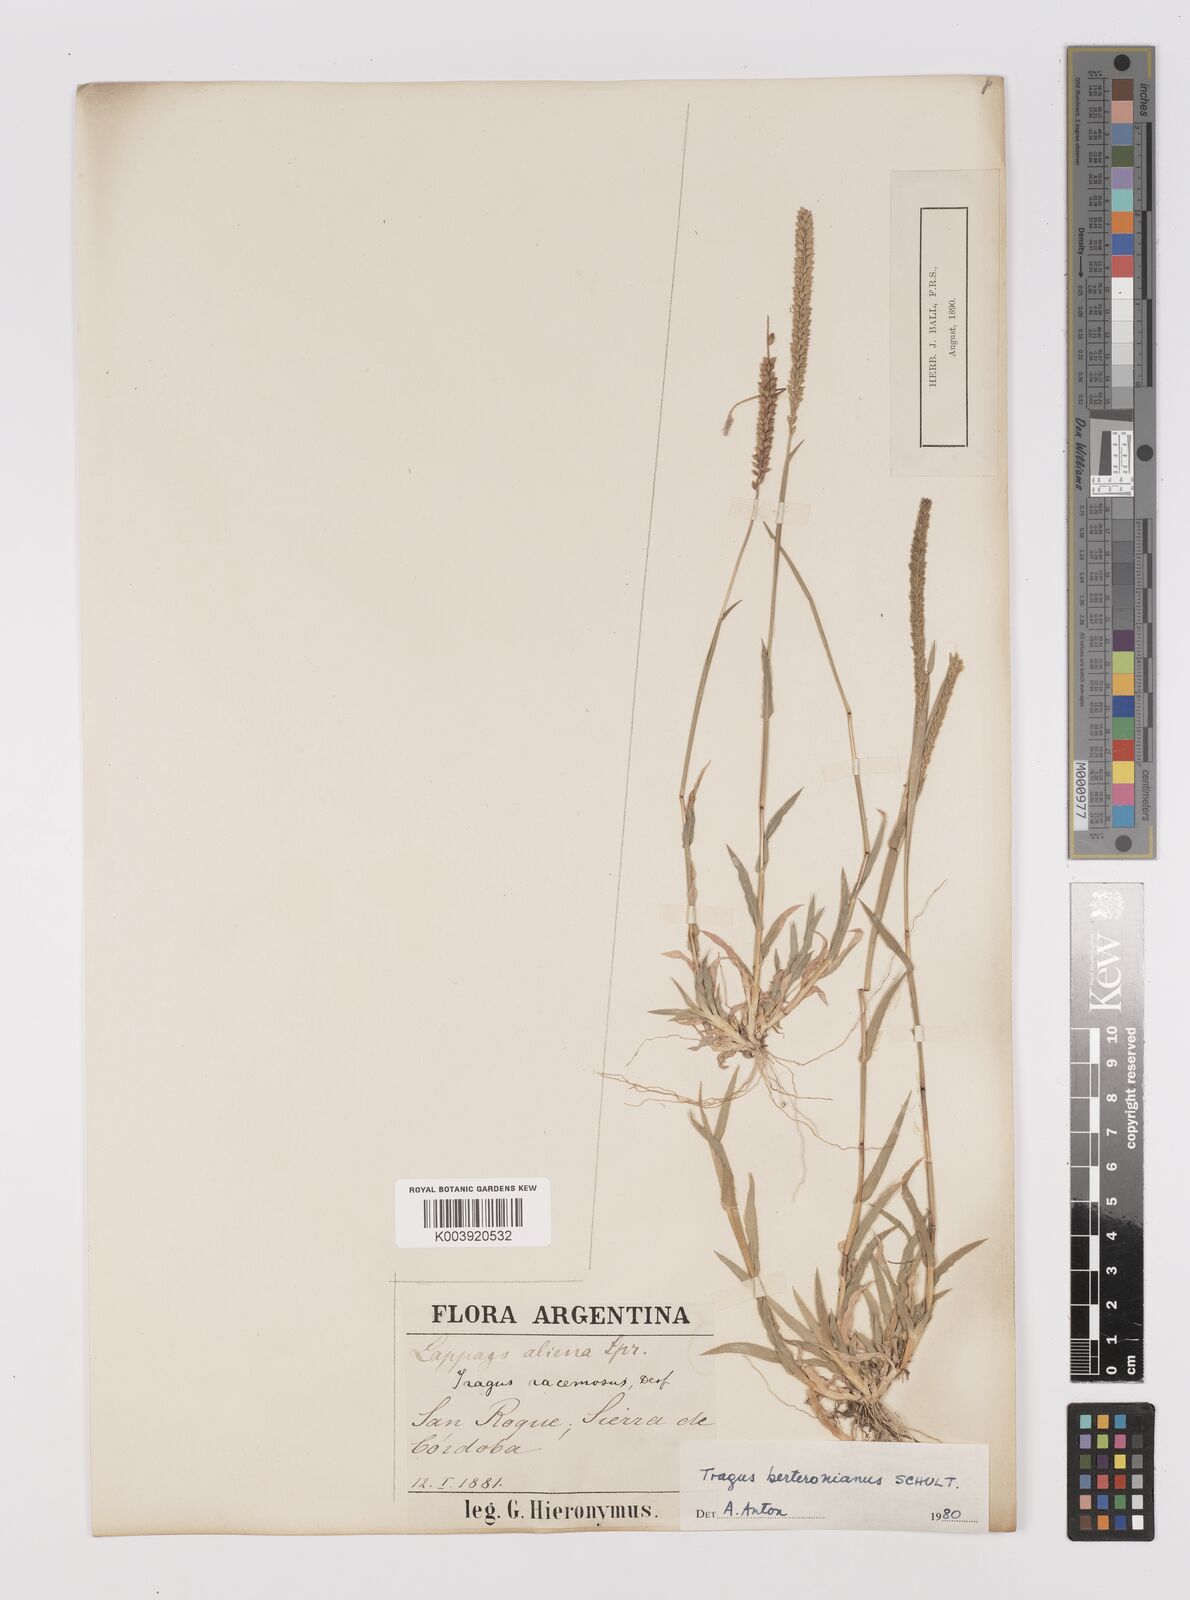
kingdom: Plantae
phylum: Tracheophyta
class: Liliopsida
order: Poales
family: Poaceae
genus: Tragus
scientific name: Tragus berteronianus
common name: African bur-grass
